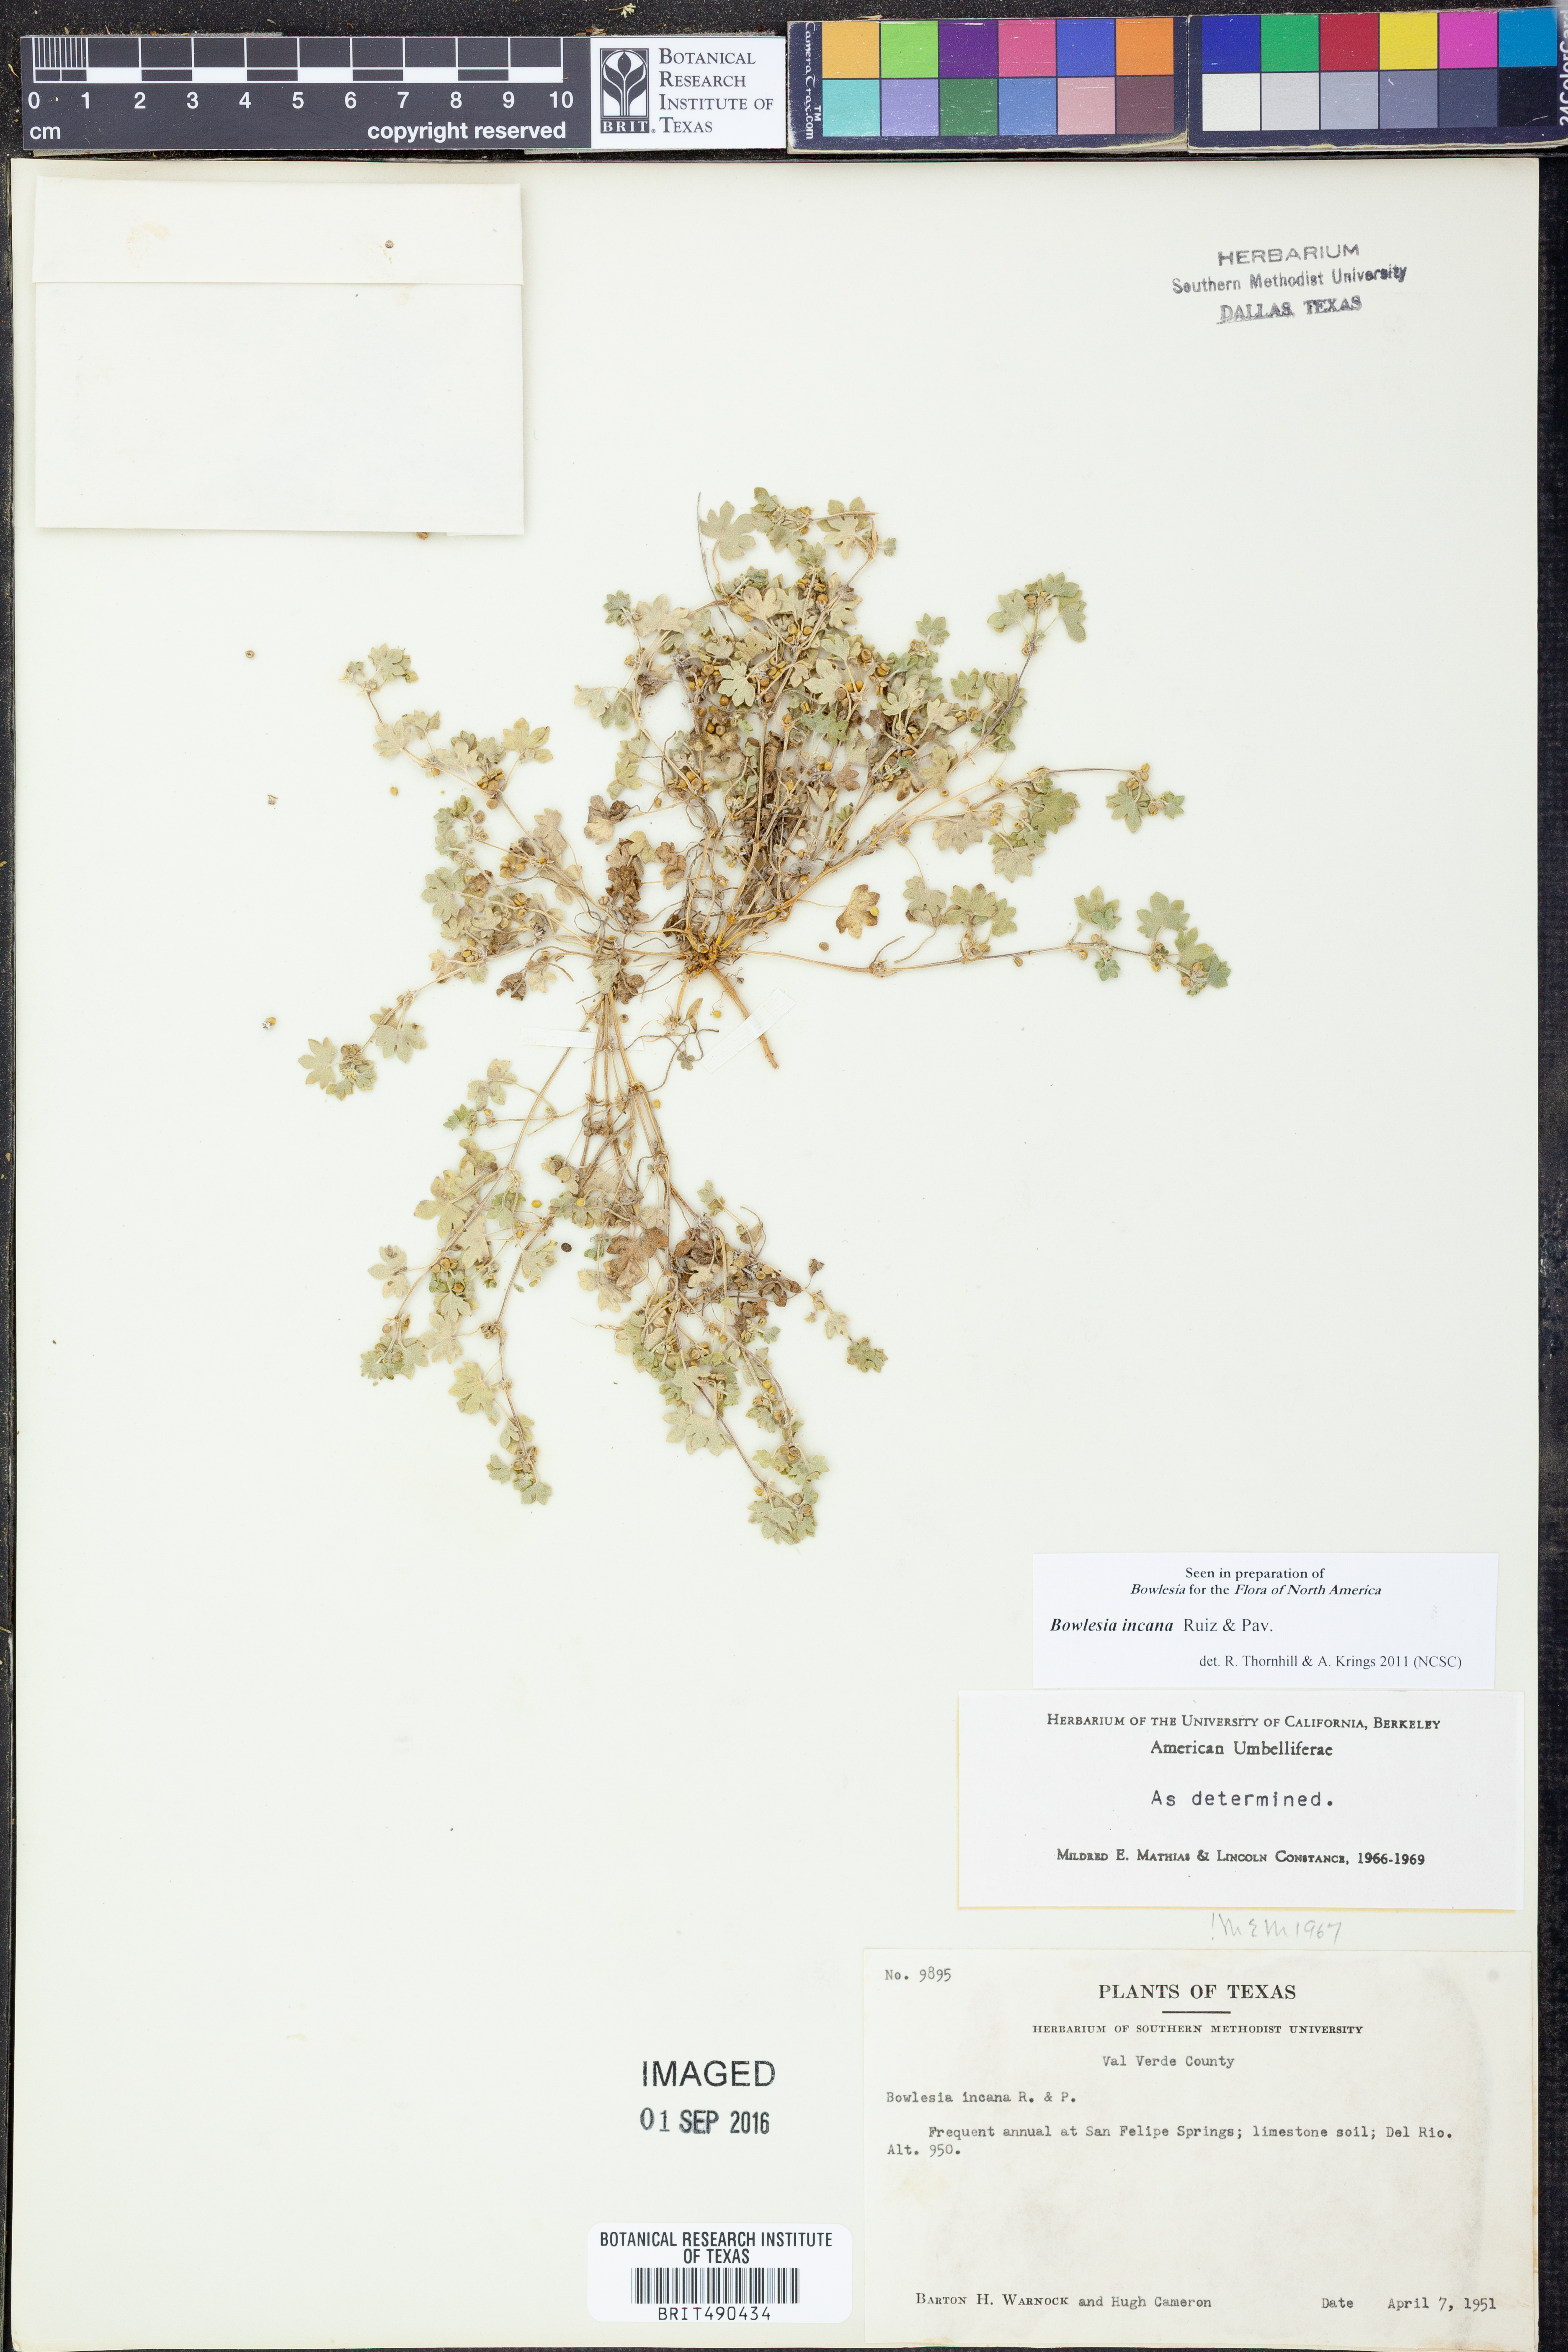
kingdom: Plantae
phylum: Tracheophyta
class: Magnoliopsida
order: Apiales
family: Apiaceae
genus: Bowlesia
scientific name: Bowlesia incana
